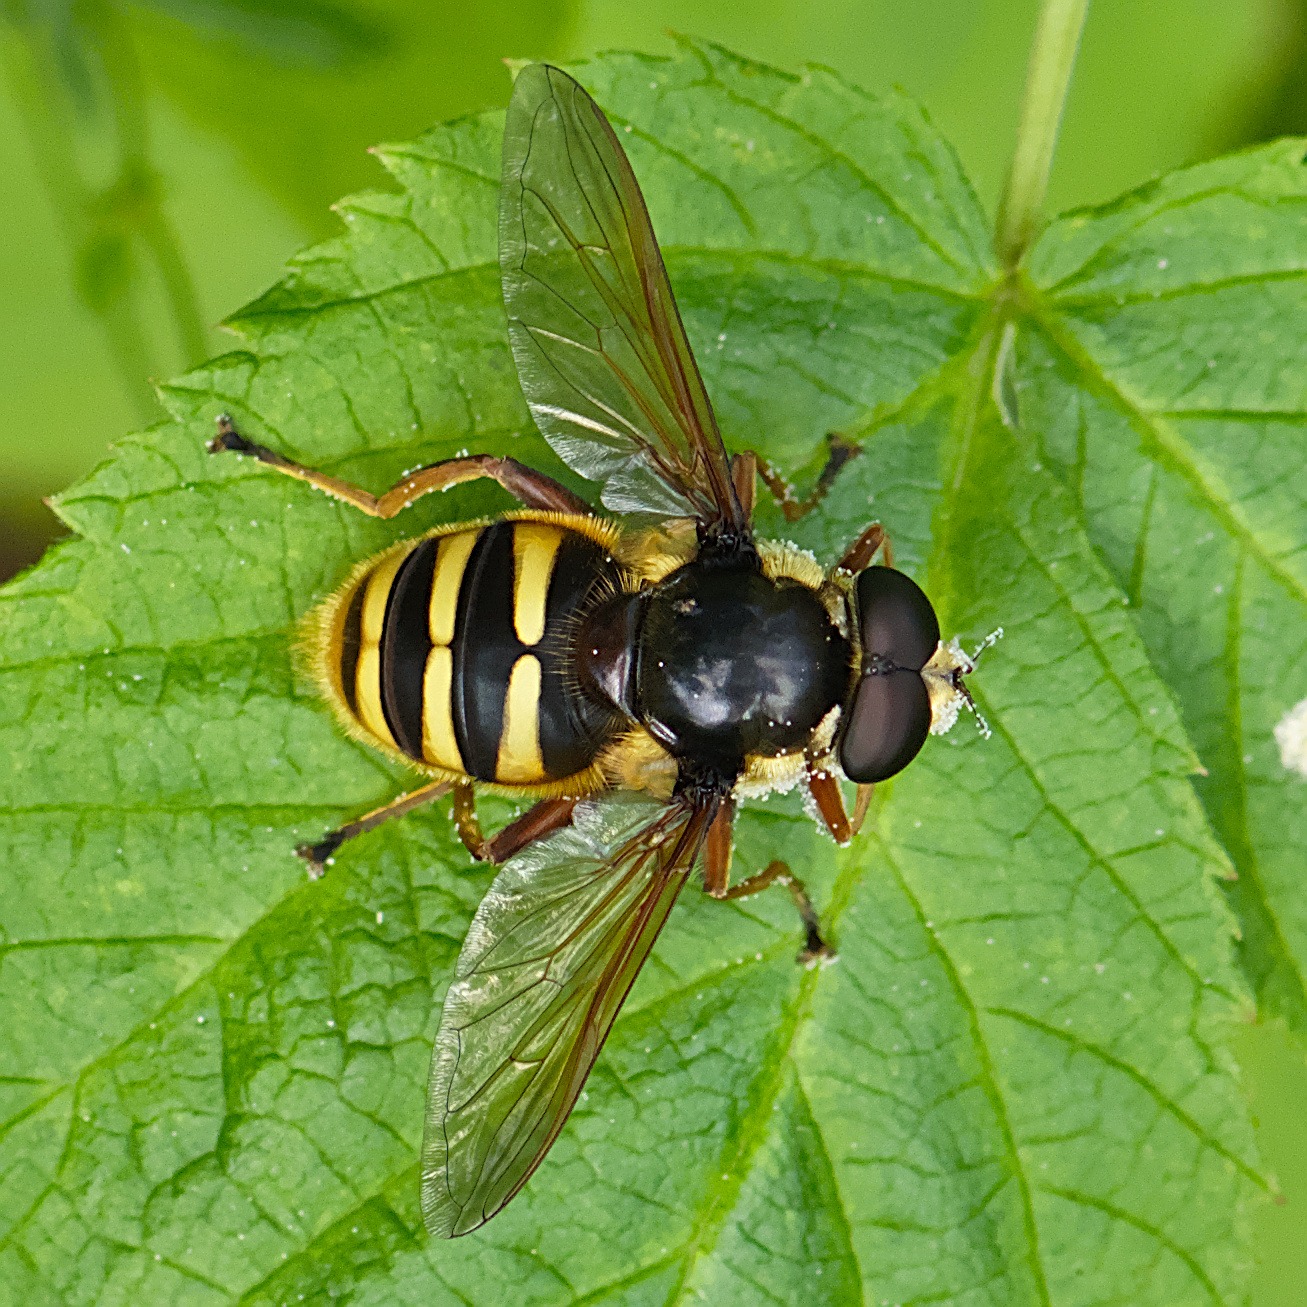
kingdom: Animalia
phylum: Arthropoda
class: Insecta
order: Diptera
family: Syrphidae
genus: Sericomyia
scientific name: Sericomyia silentis
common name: Tørve-silkesvirreflue
